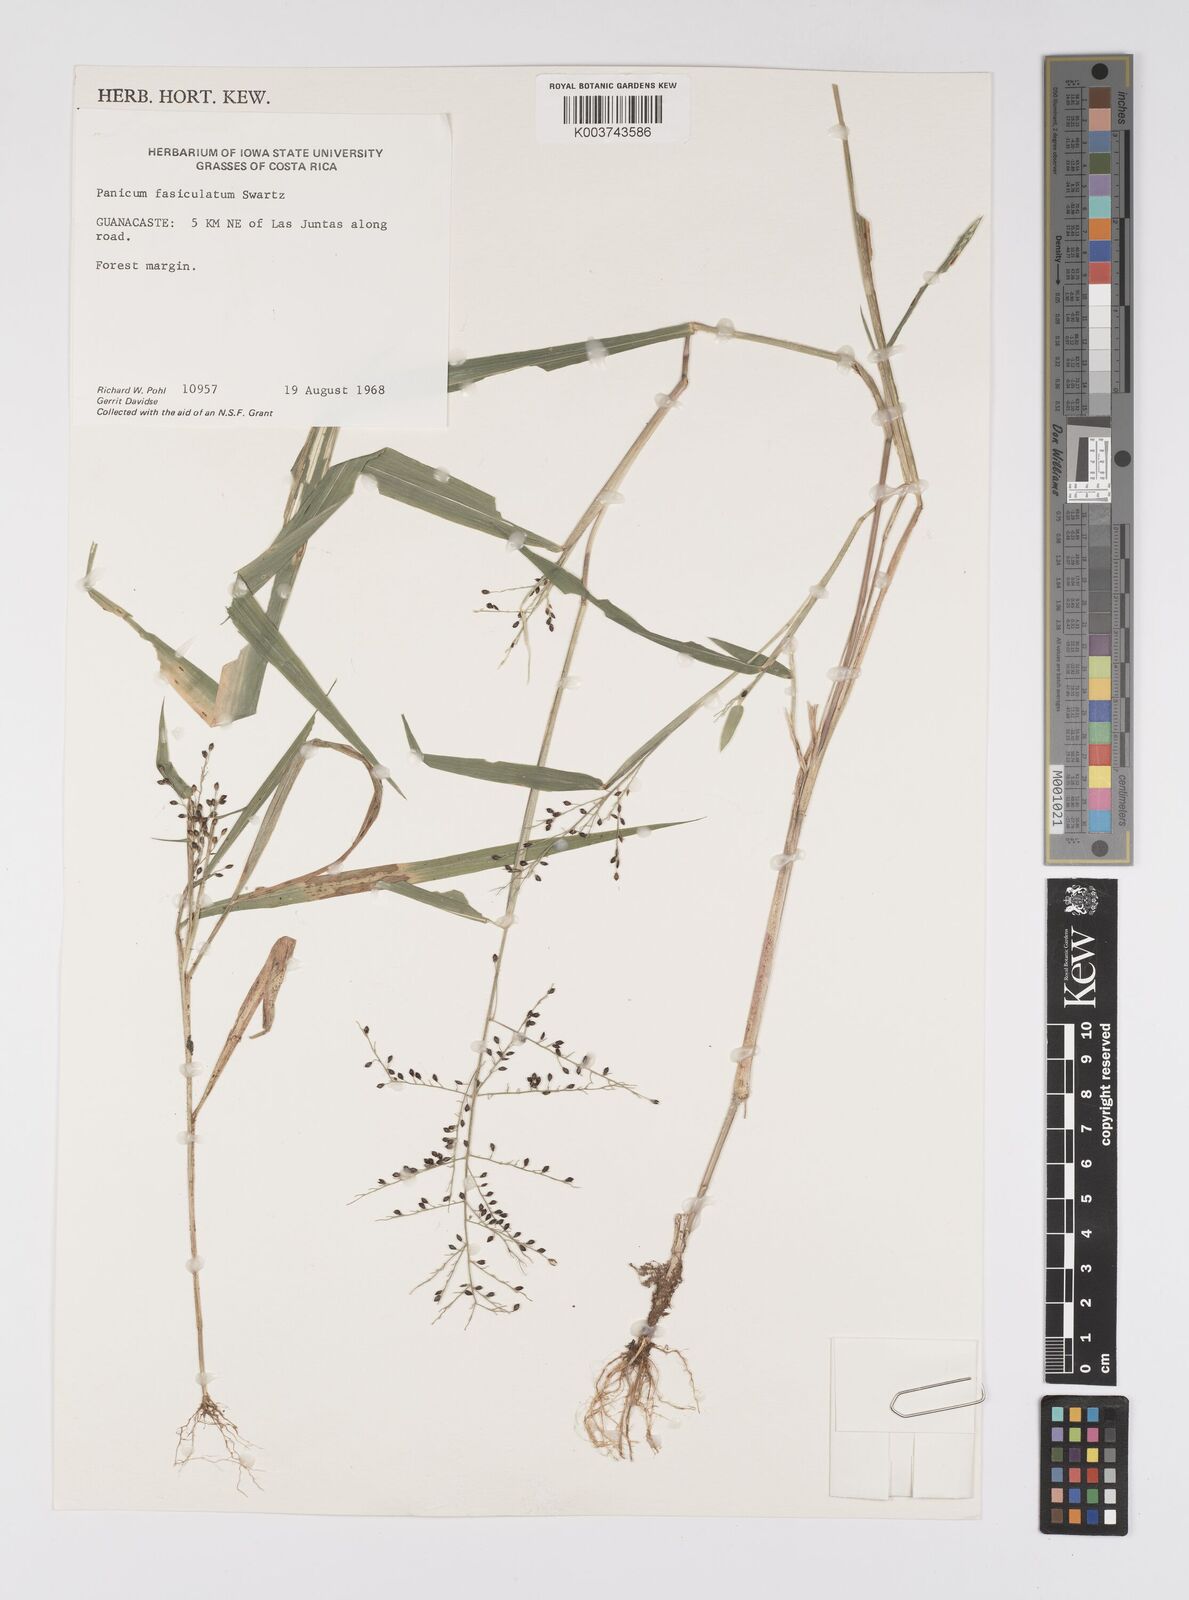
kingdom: Plantae
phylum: Tracheophyta
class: Liliopsida
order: Poales
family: Poaceae
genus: Urochloa
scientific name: Urochloa fusca
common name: Browntop signal grass
